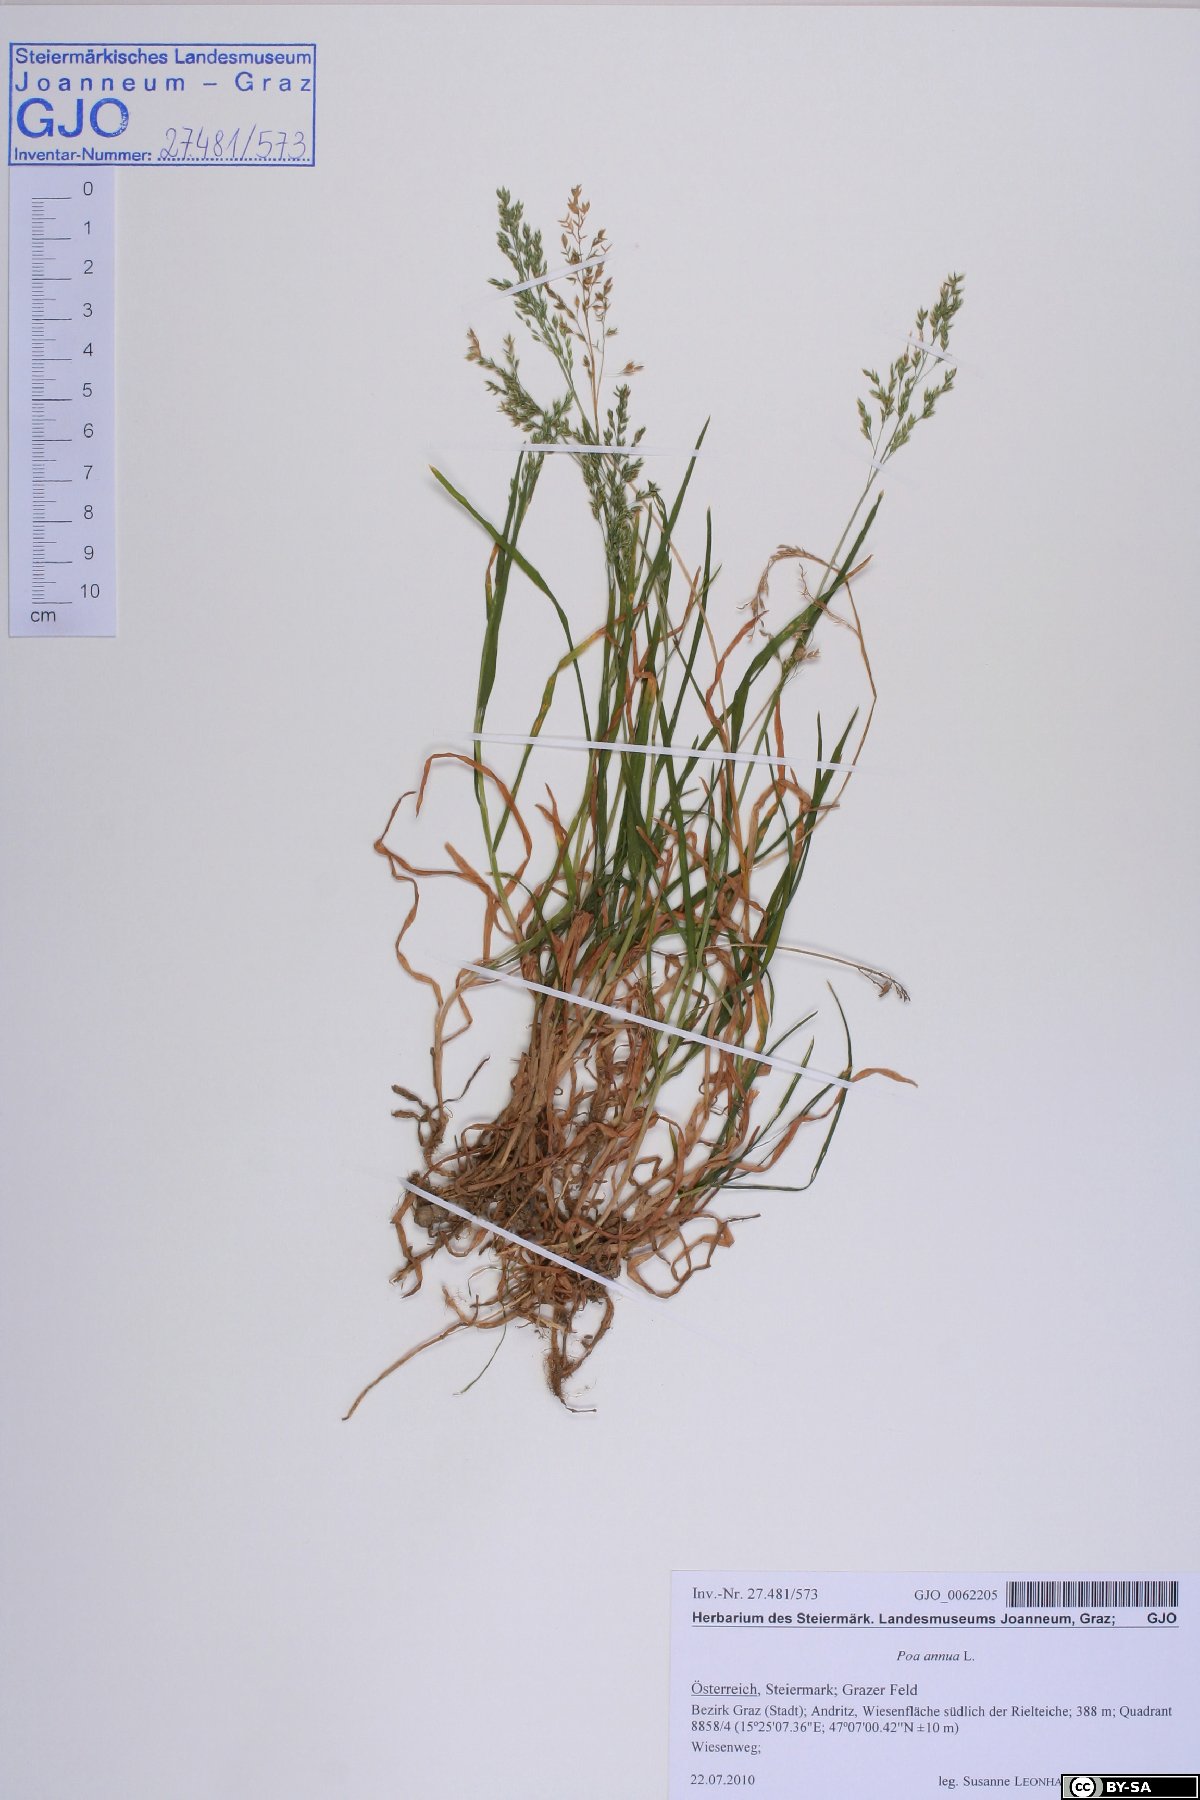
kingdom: Plantae
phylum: Tracheophyta
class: Liliopsida
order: Poales
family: Poaceae
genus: Poa
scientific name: Poa annua
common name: Annual bluegrass
